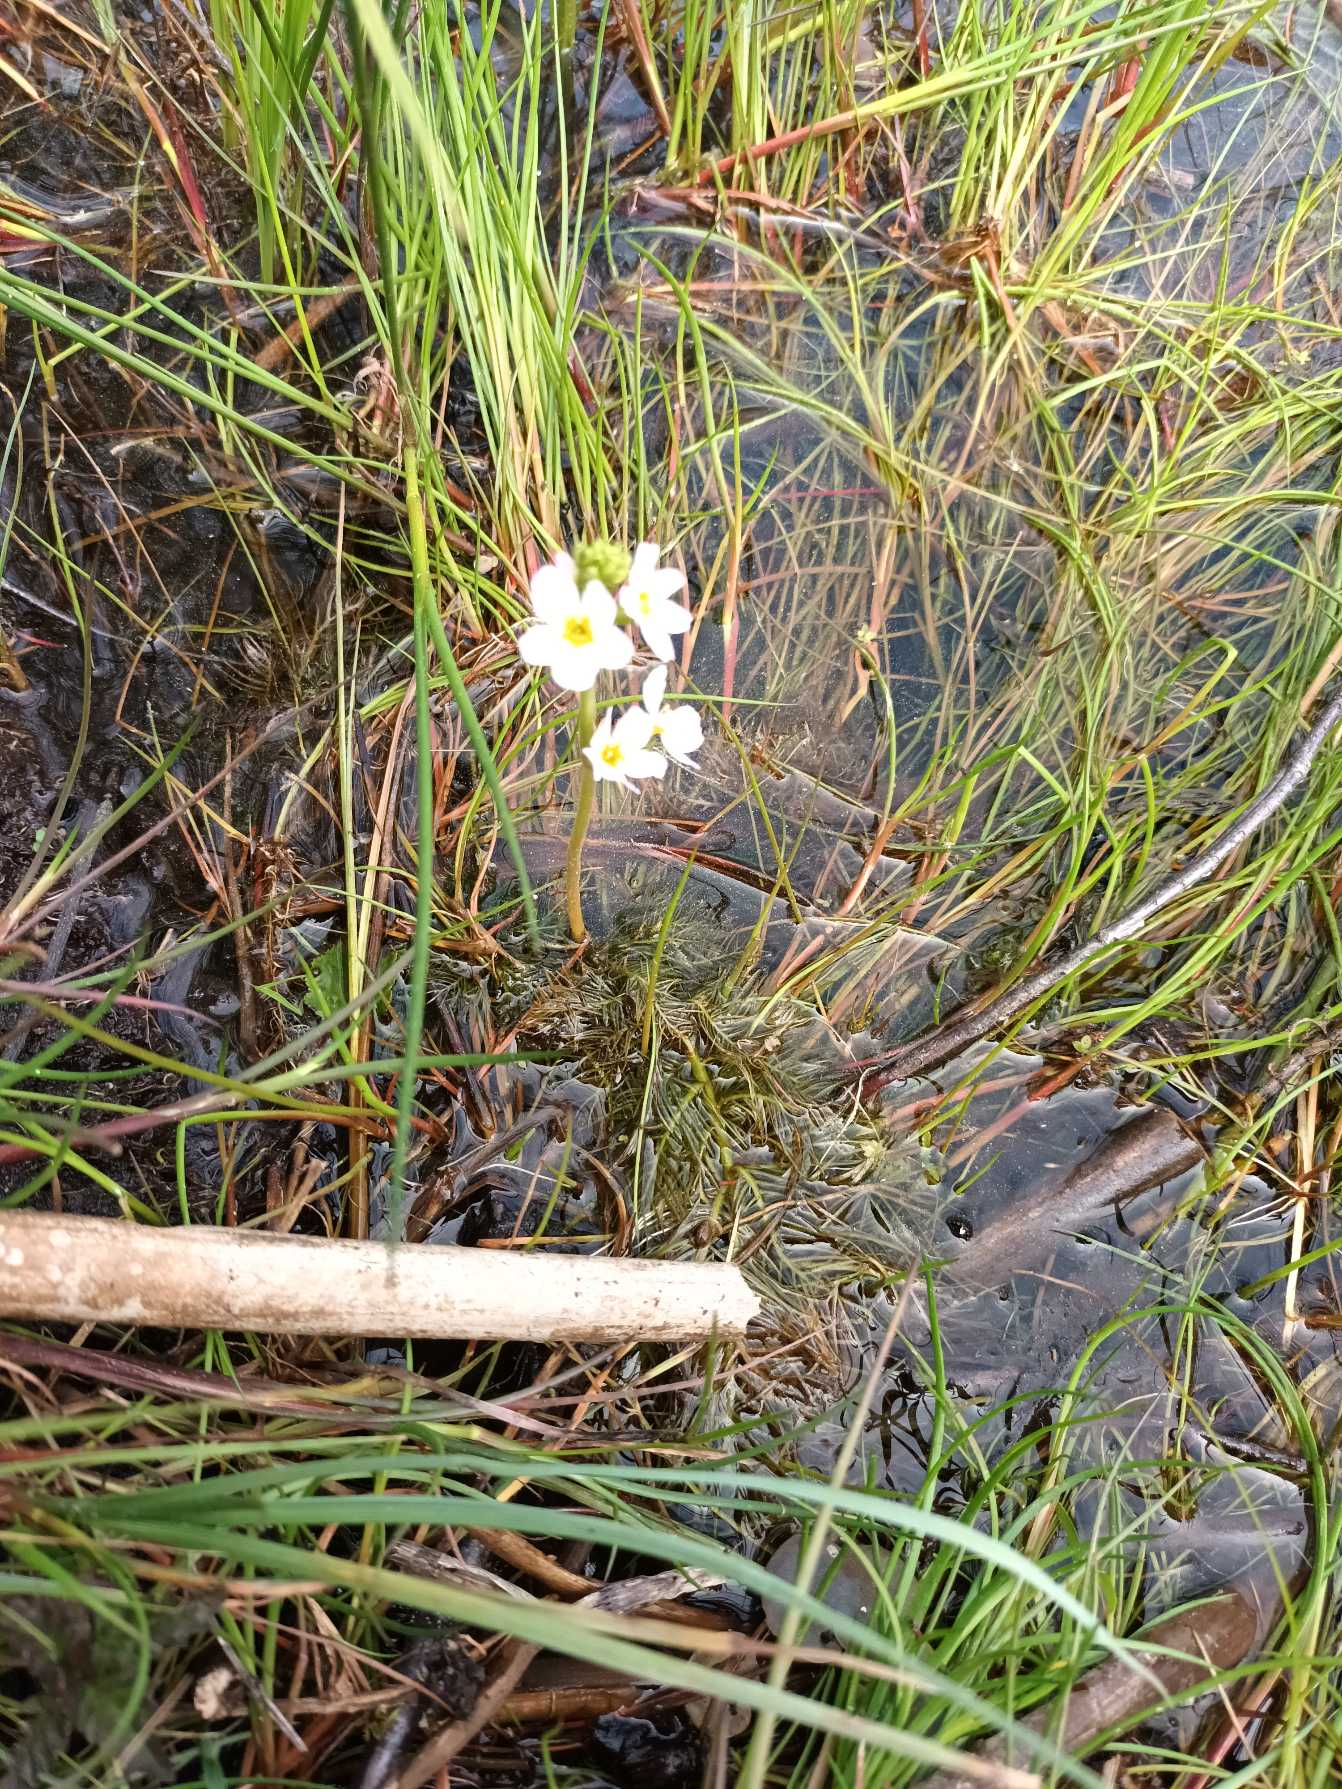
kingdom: Plantae
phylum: Tracheophyta
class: Magnoliopsida
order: Ericales
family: Primulaceae
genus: Hottonia
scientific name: Hottonia palustris
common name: Vandrøllike
